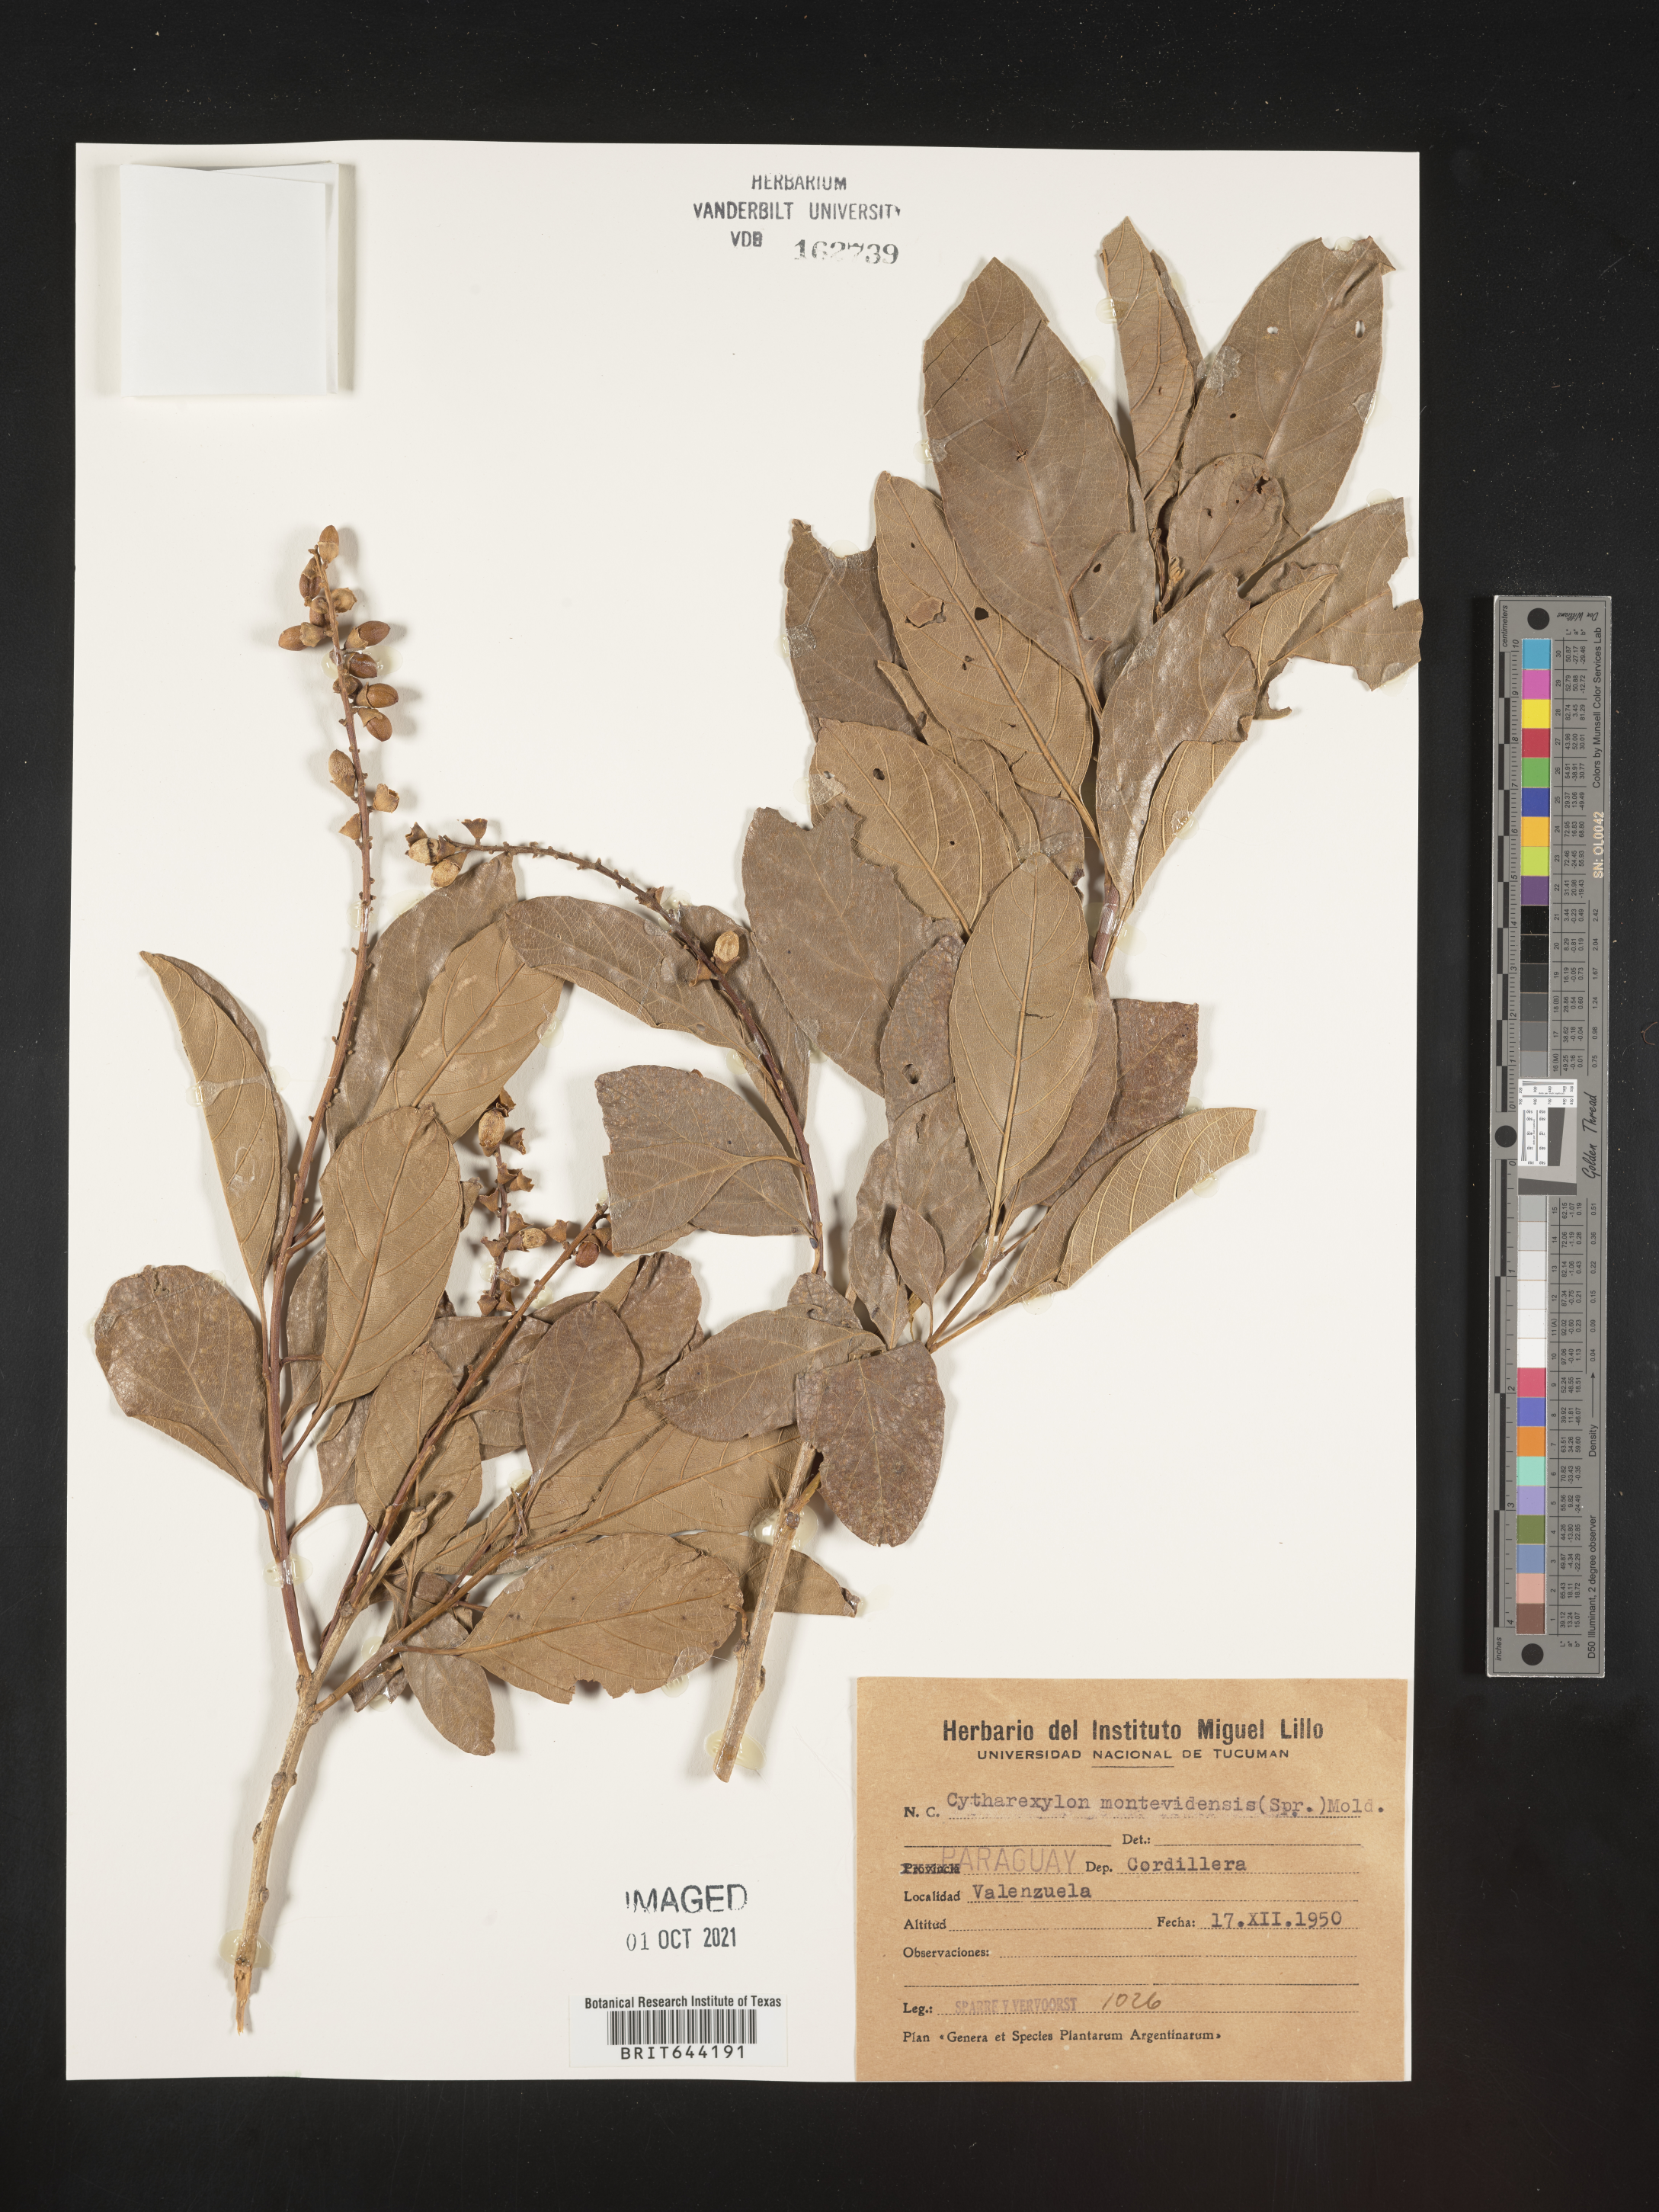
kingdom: Plantae
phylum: Tracheophyta
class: Magnoliopsida
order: Lamiales
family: Verbenaceae
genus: Citharexylum
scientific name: Citharexylum
